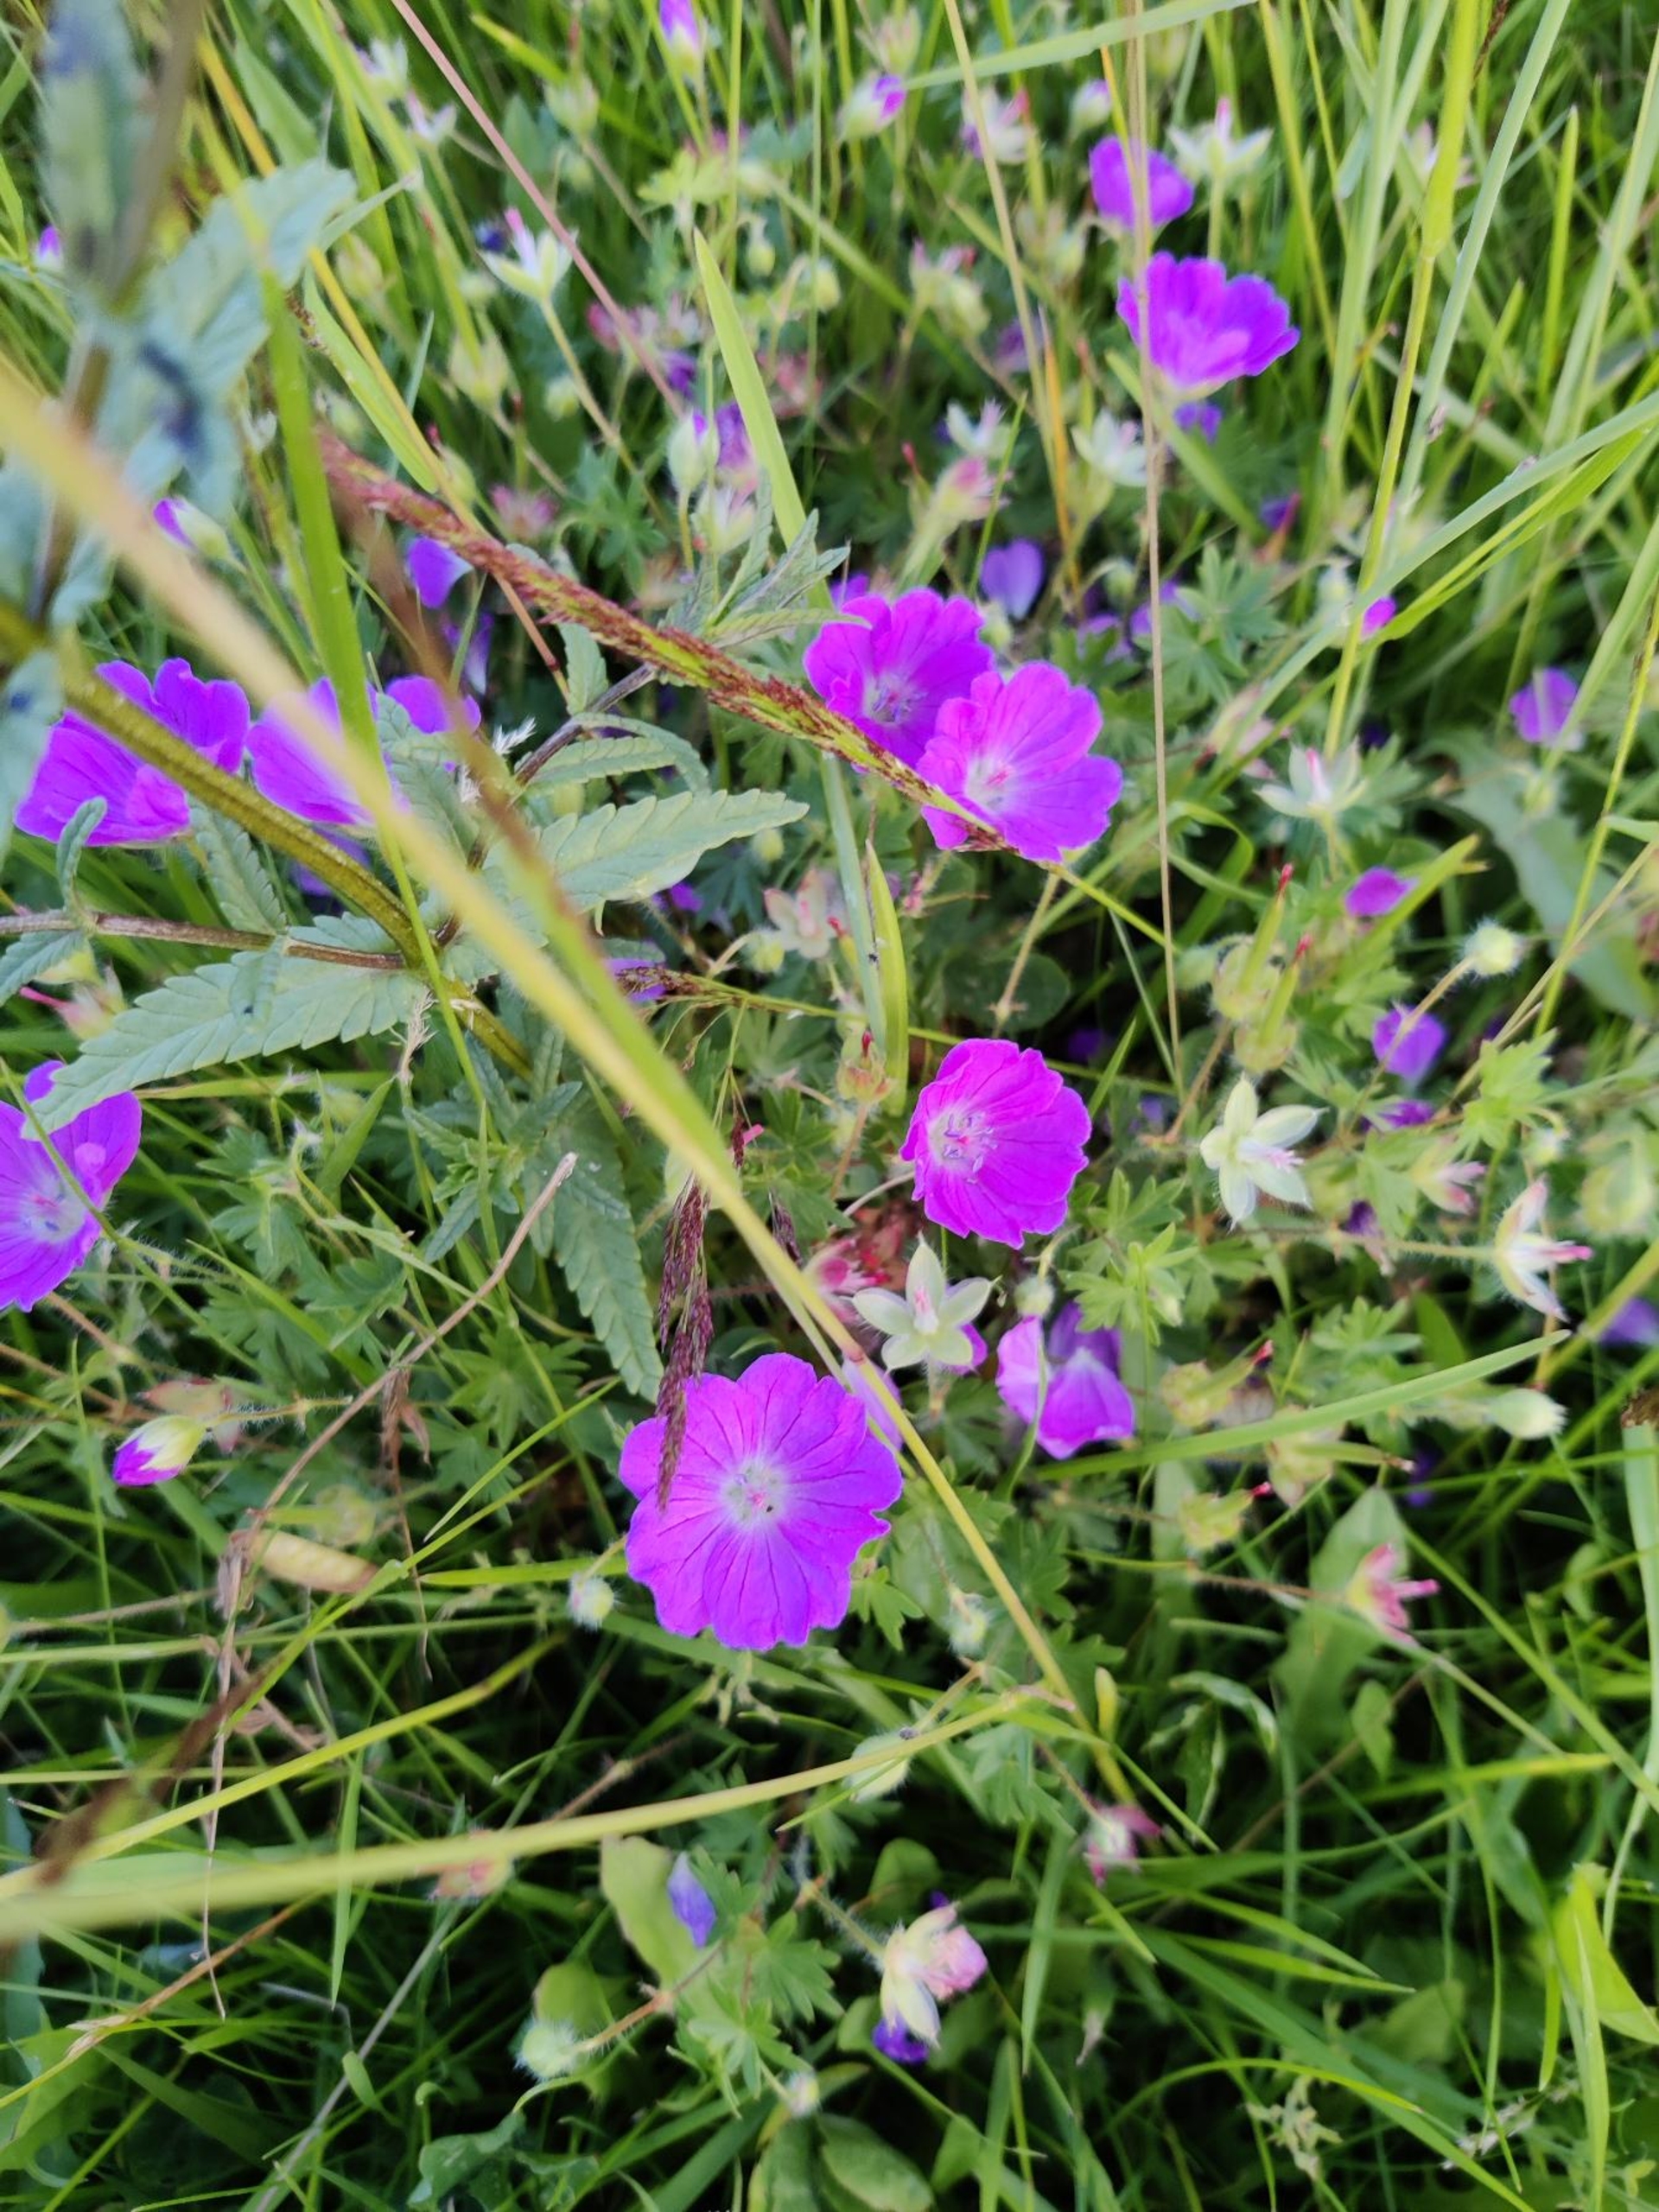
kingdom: Plantae
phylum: Tracheophyta
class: Magnoliopsida
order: Geraniales
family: Geraniaceae
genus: Geranium
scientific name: Geranium sanguineum
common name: Blodrød storkenæb
